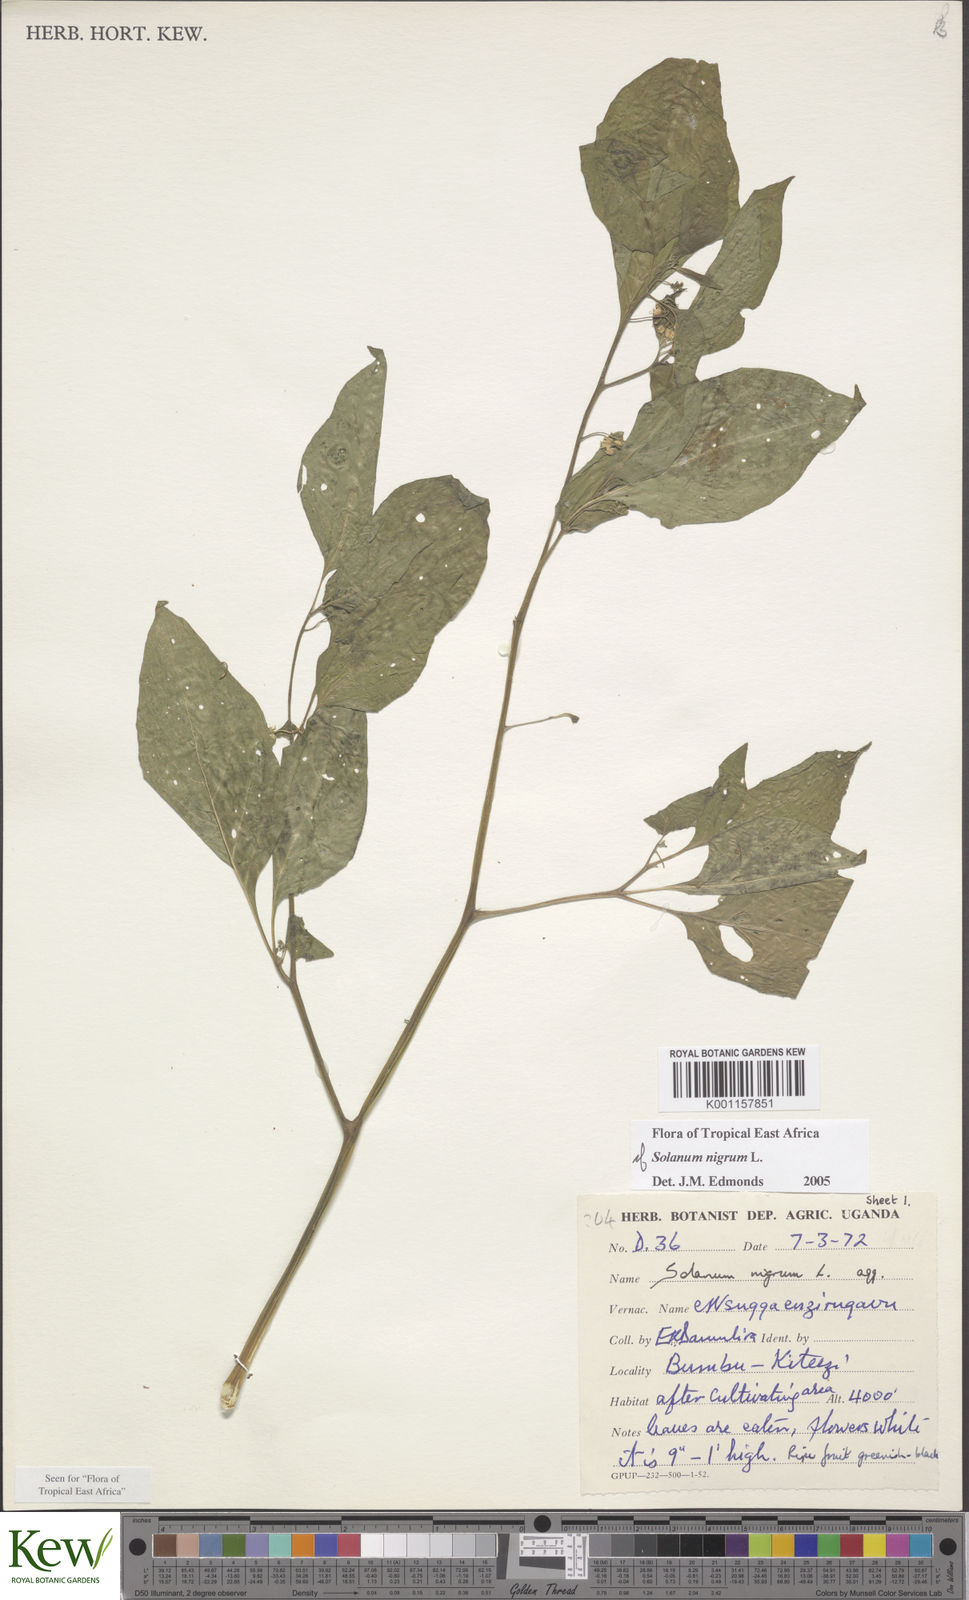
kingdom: Plantae
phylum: Tracheophyta
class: Magnoliopsida
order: Solanales
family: Solanaceae
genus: Solanum
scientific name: Solanum nigrum
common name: Black nightshade
